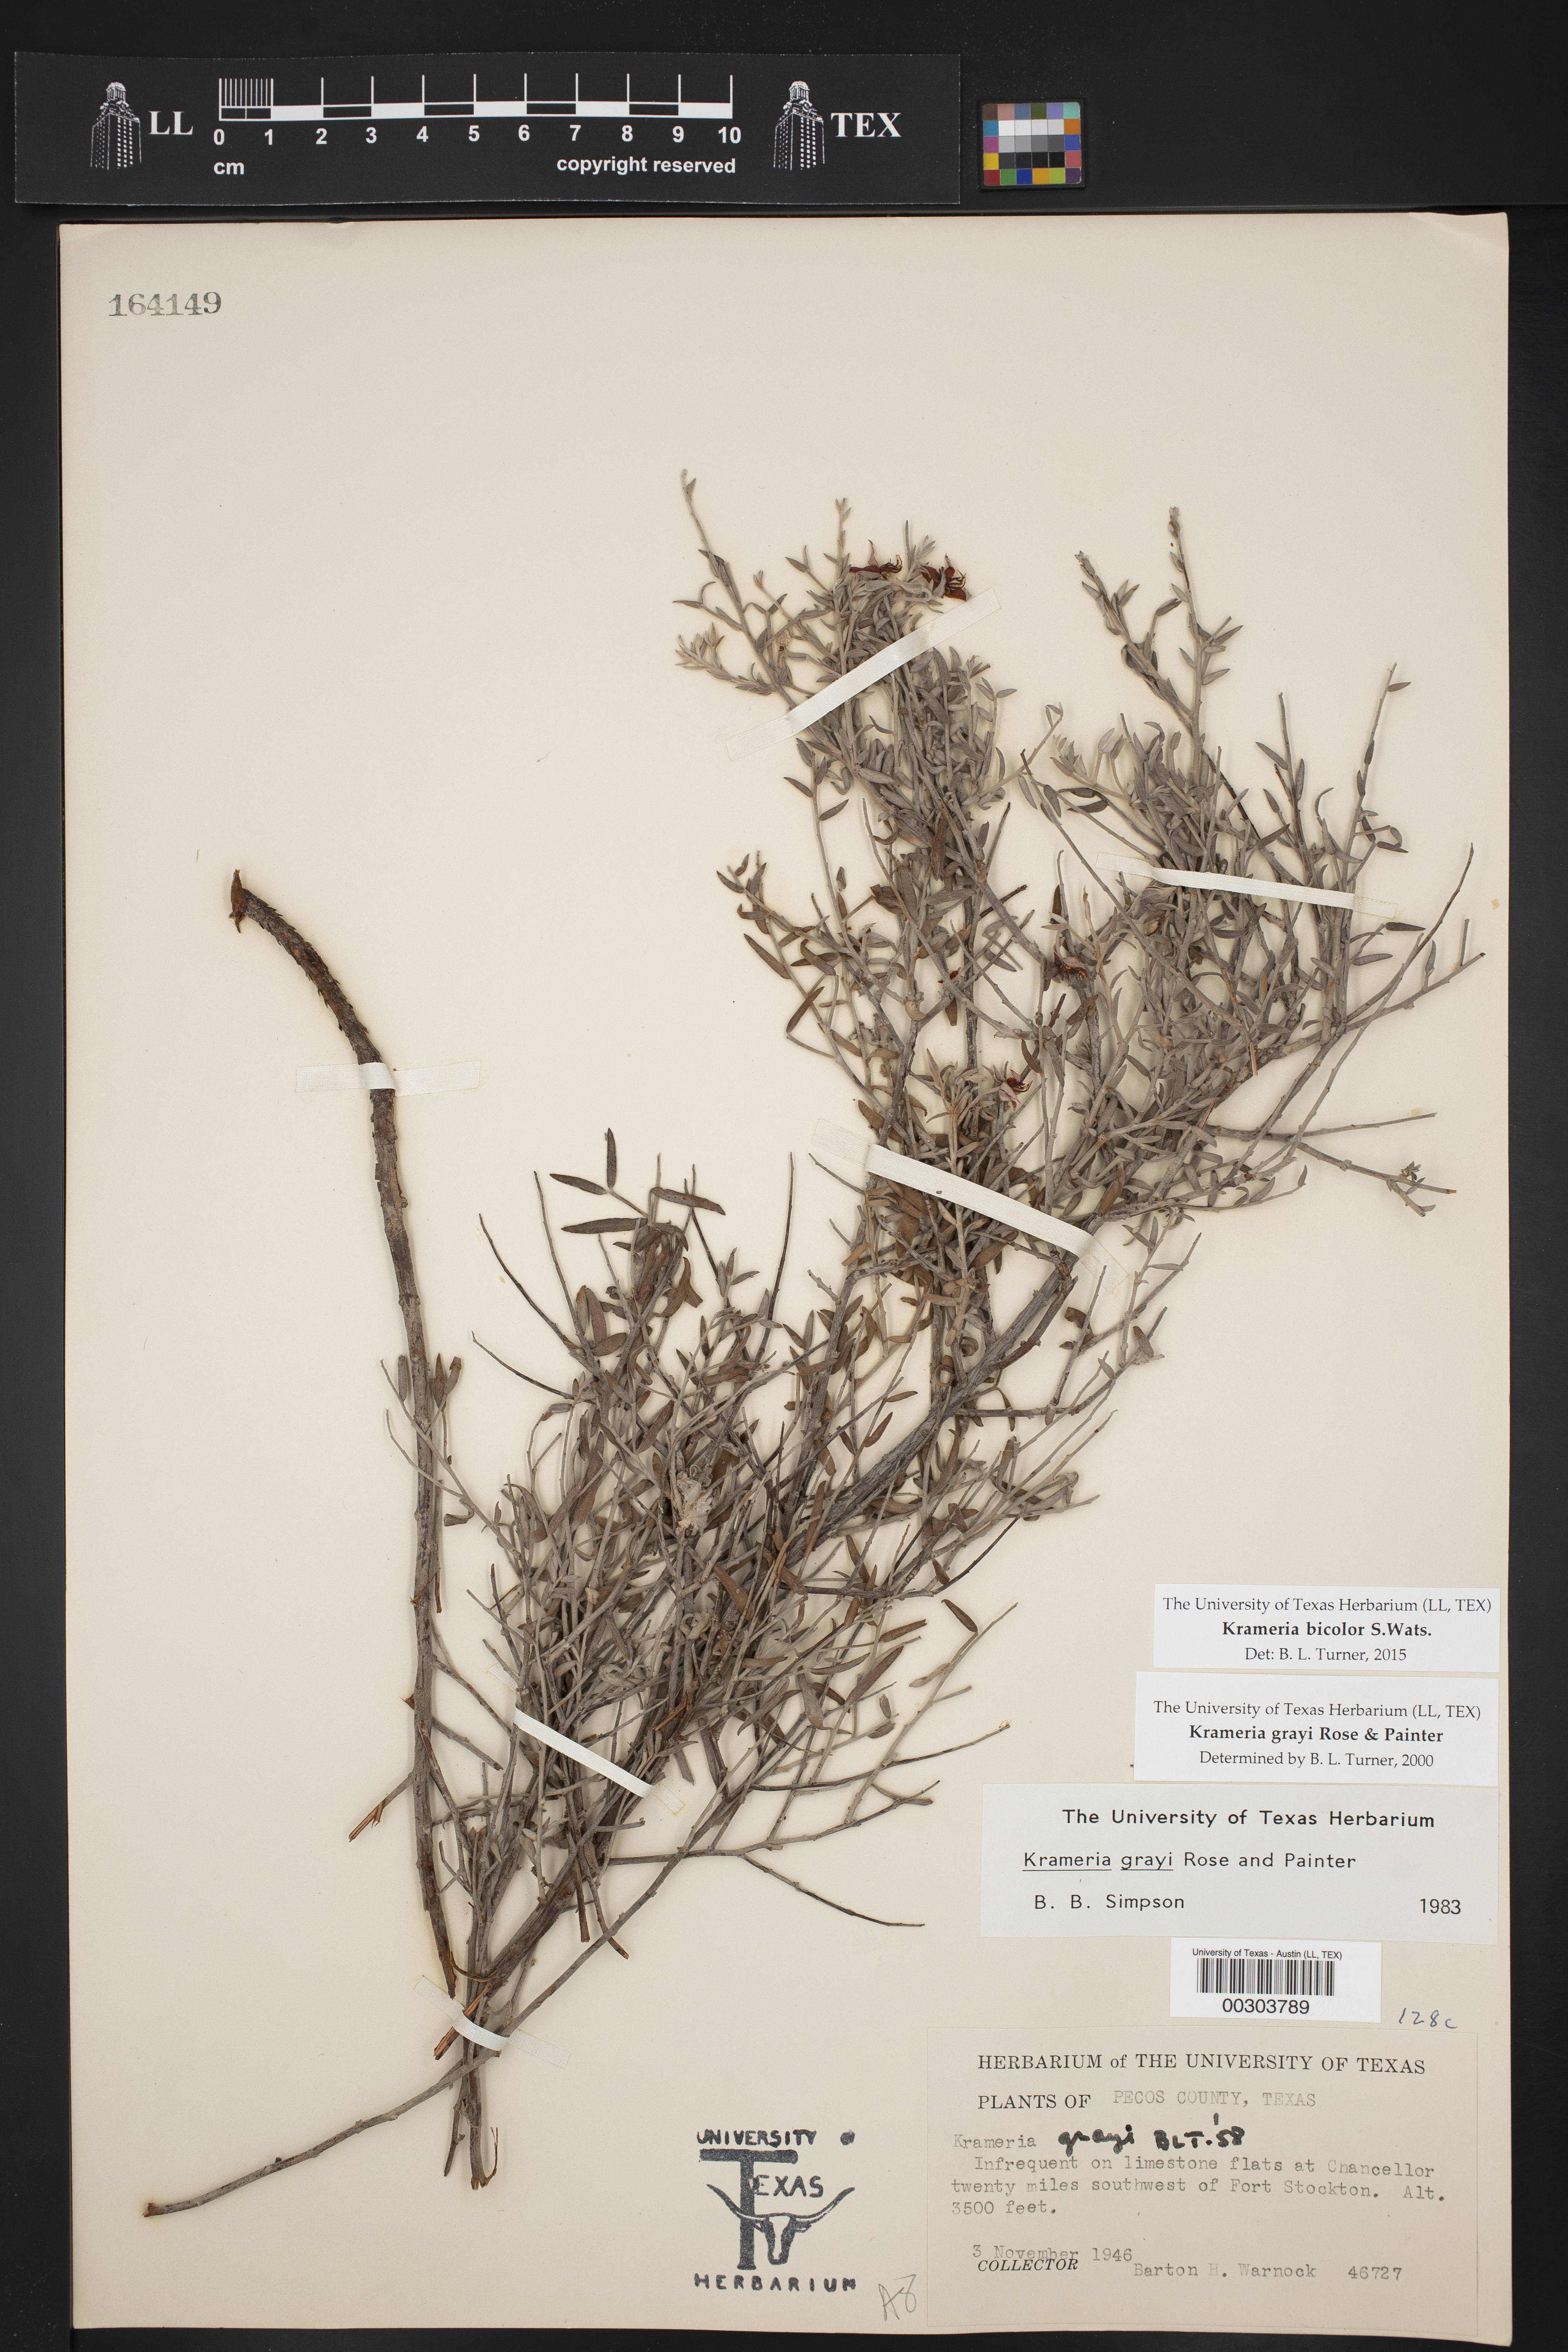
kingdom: Plantae
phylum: Tracheophyta
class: Magnoliopsida
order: Zygophyllales
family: Krameriaceae
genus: Krameria
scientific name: Krameria bicolor
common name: White ratany
